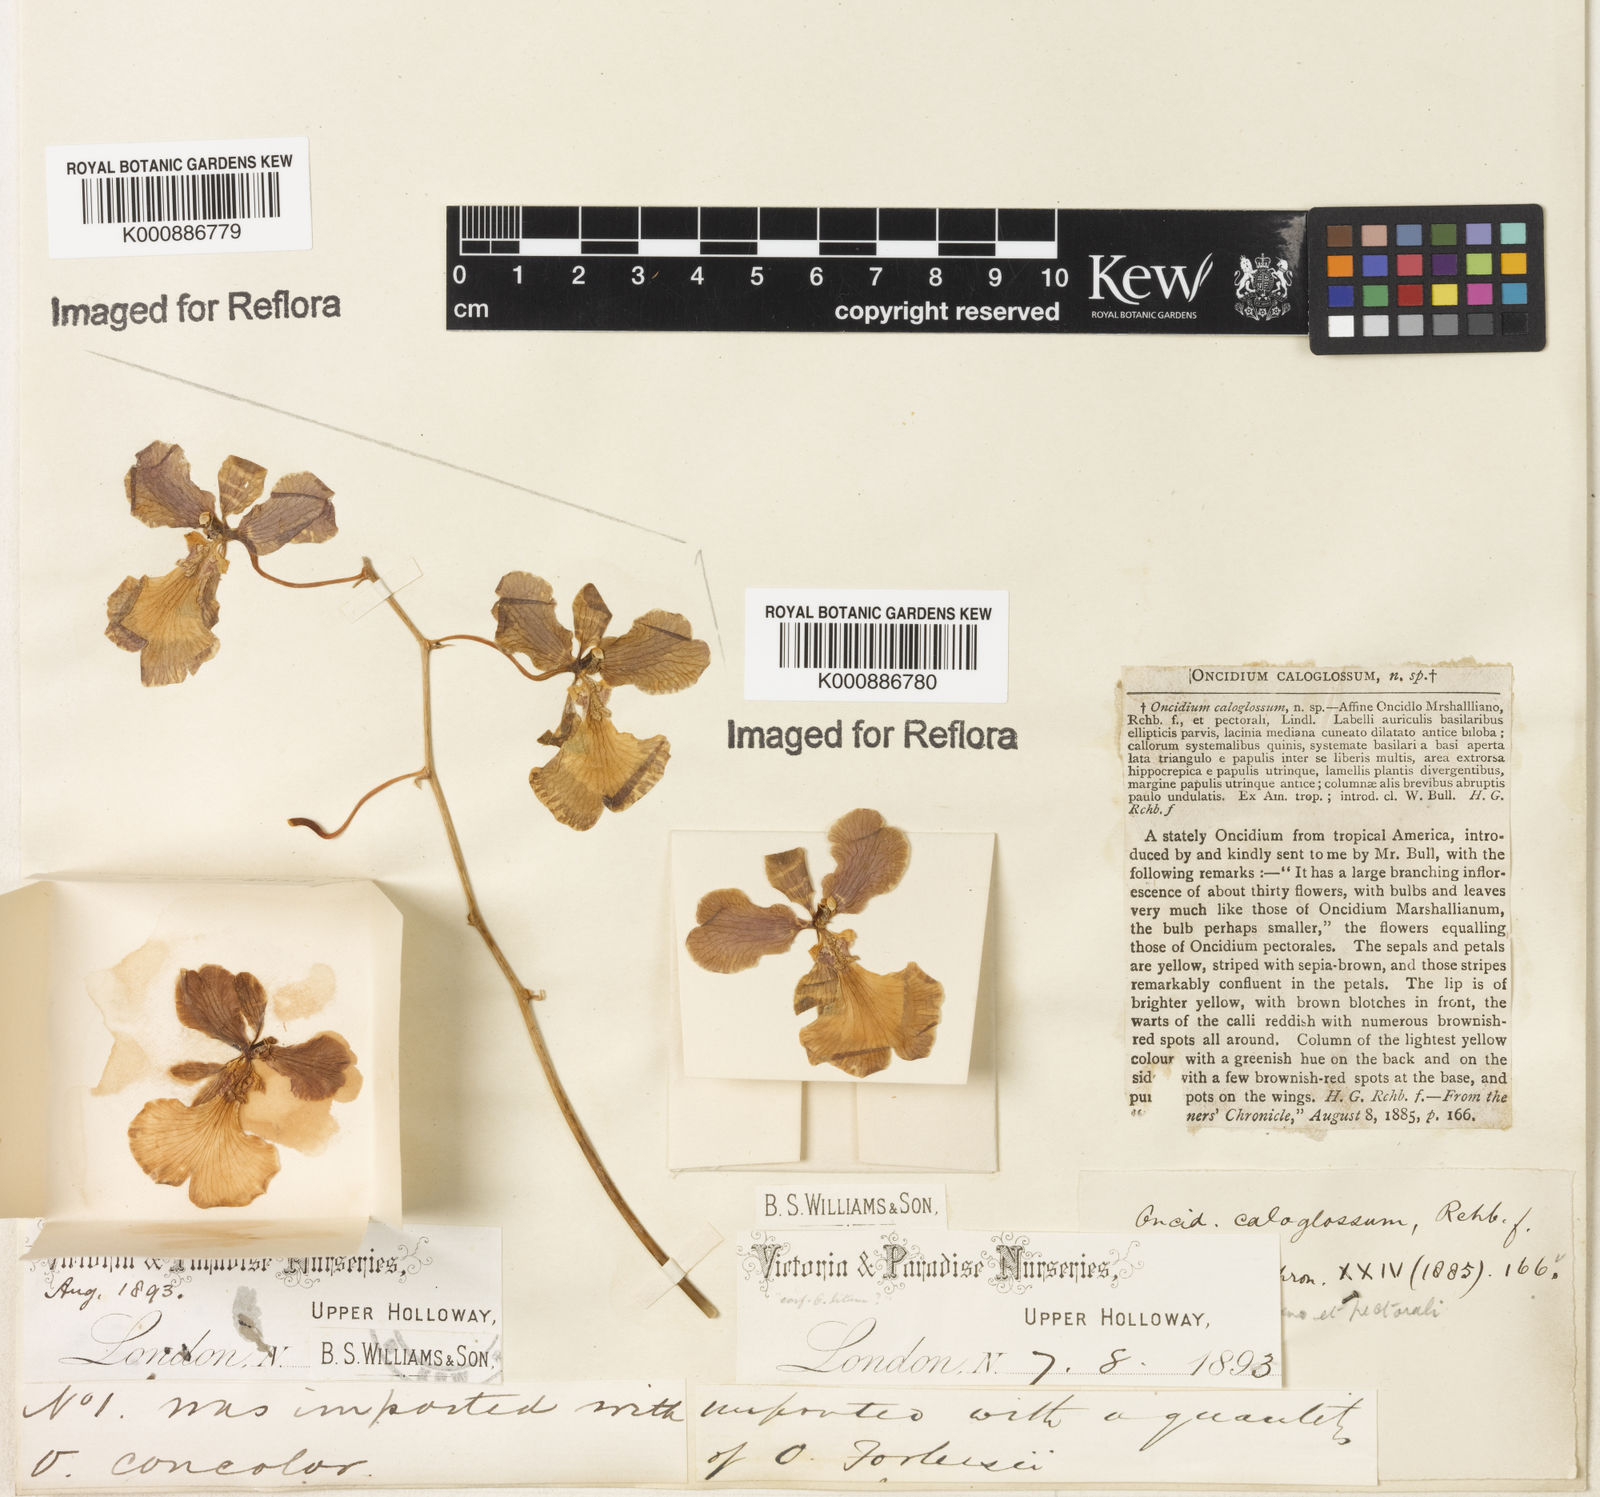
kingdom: Plantae
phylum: Tracheophyta
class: Liliopsida
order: Asparagales
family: Orchidaceae
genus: Gomesa
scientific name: Gomesa gardneri
